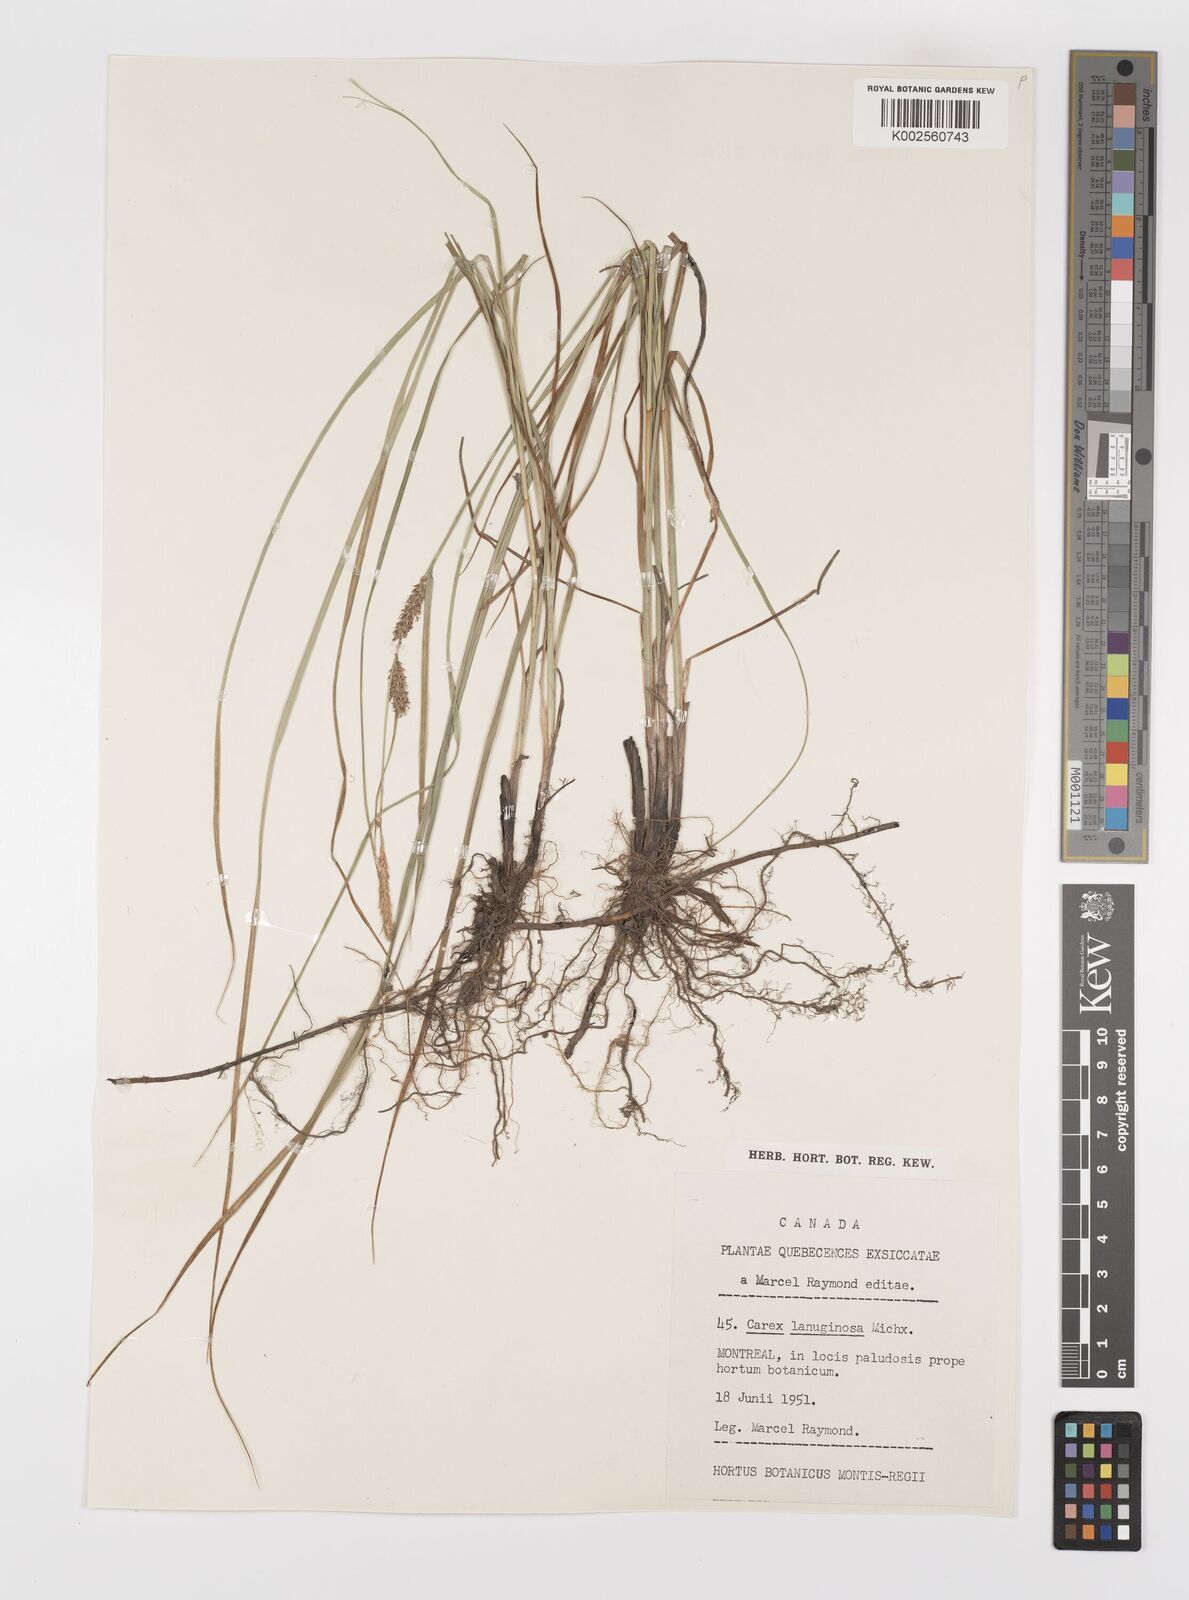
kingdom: Plantae
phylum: Tracheophyta
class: Liliopsida
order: Poales
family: Cyperaceae
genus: Carex
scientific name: Carex lasiocarpa
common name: Slender sedge
